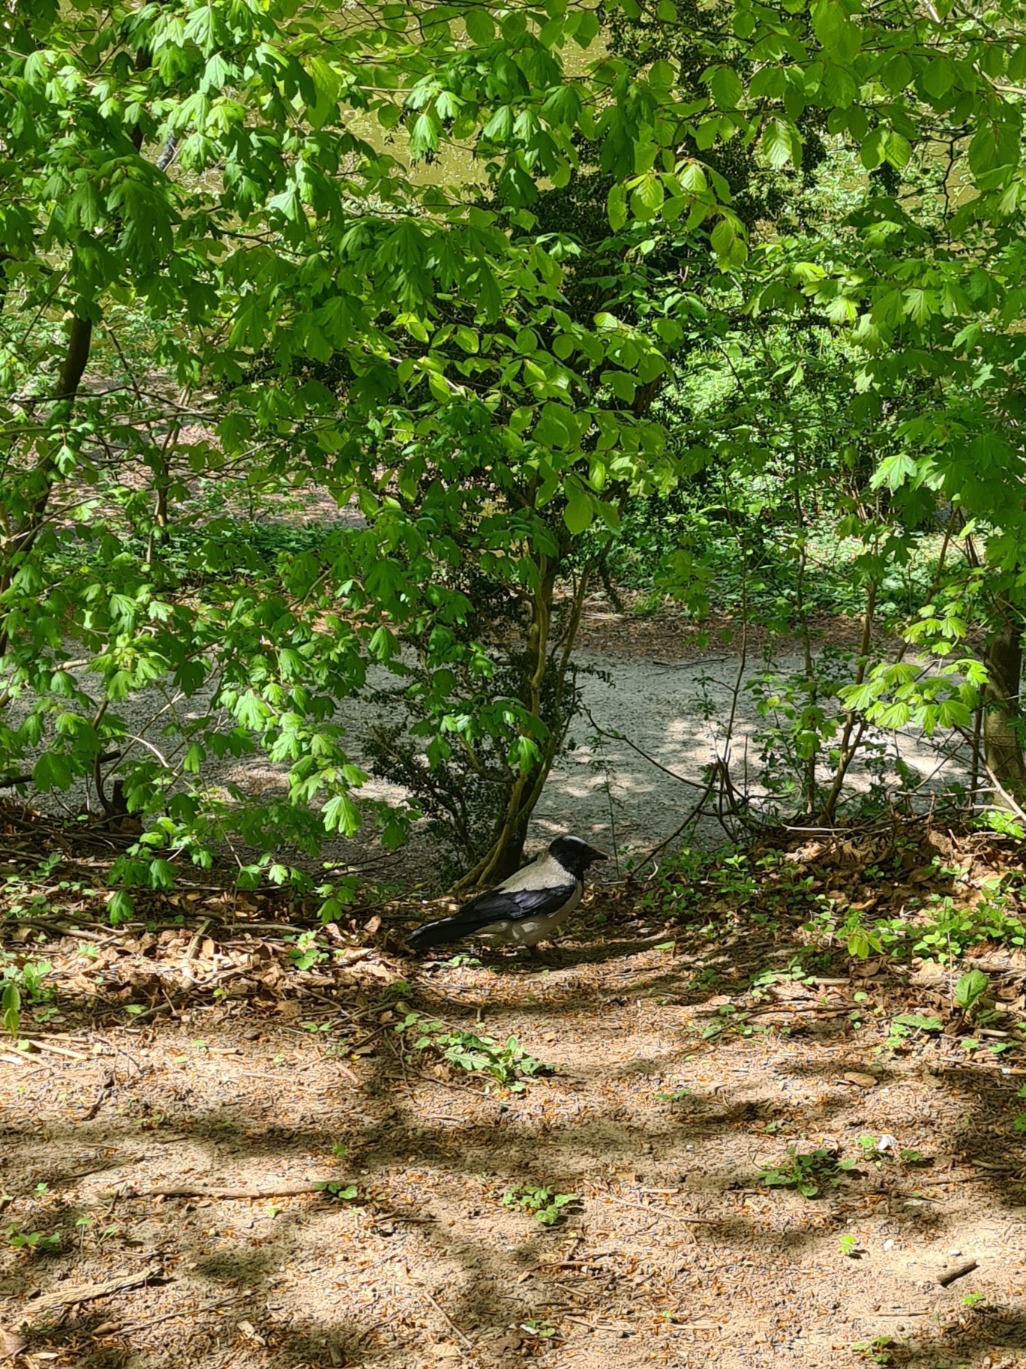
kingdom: Animalia
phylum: Chordata
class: Aves
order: Passeriformes
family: Corvidae
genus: Corvus
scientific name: Corvus cornix
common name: Gråkrage
